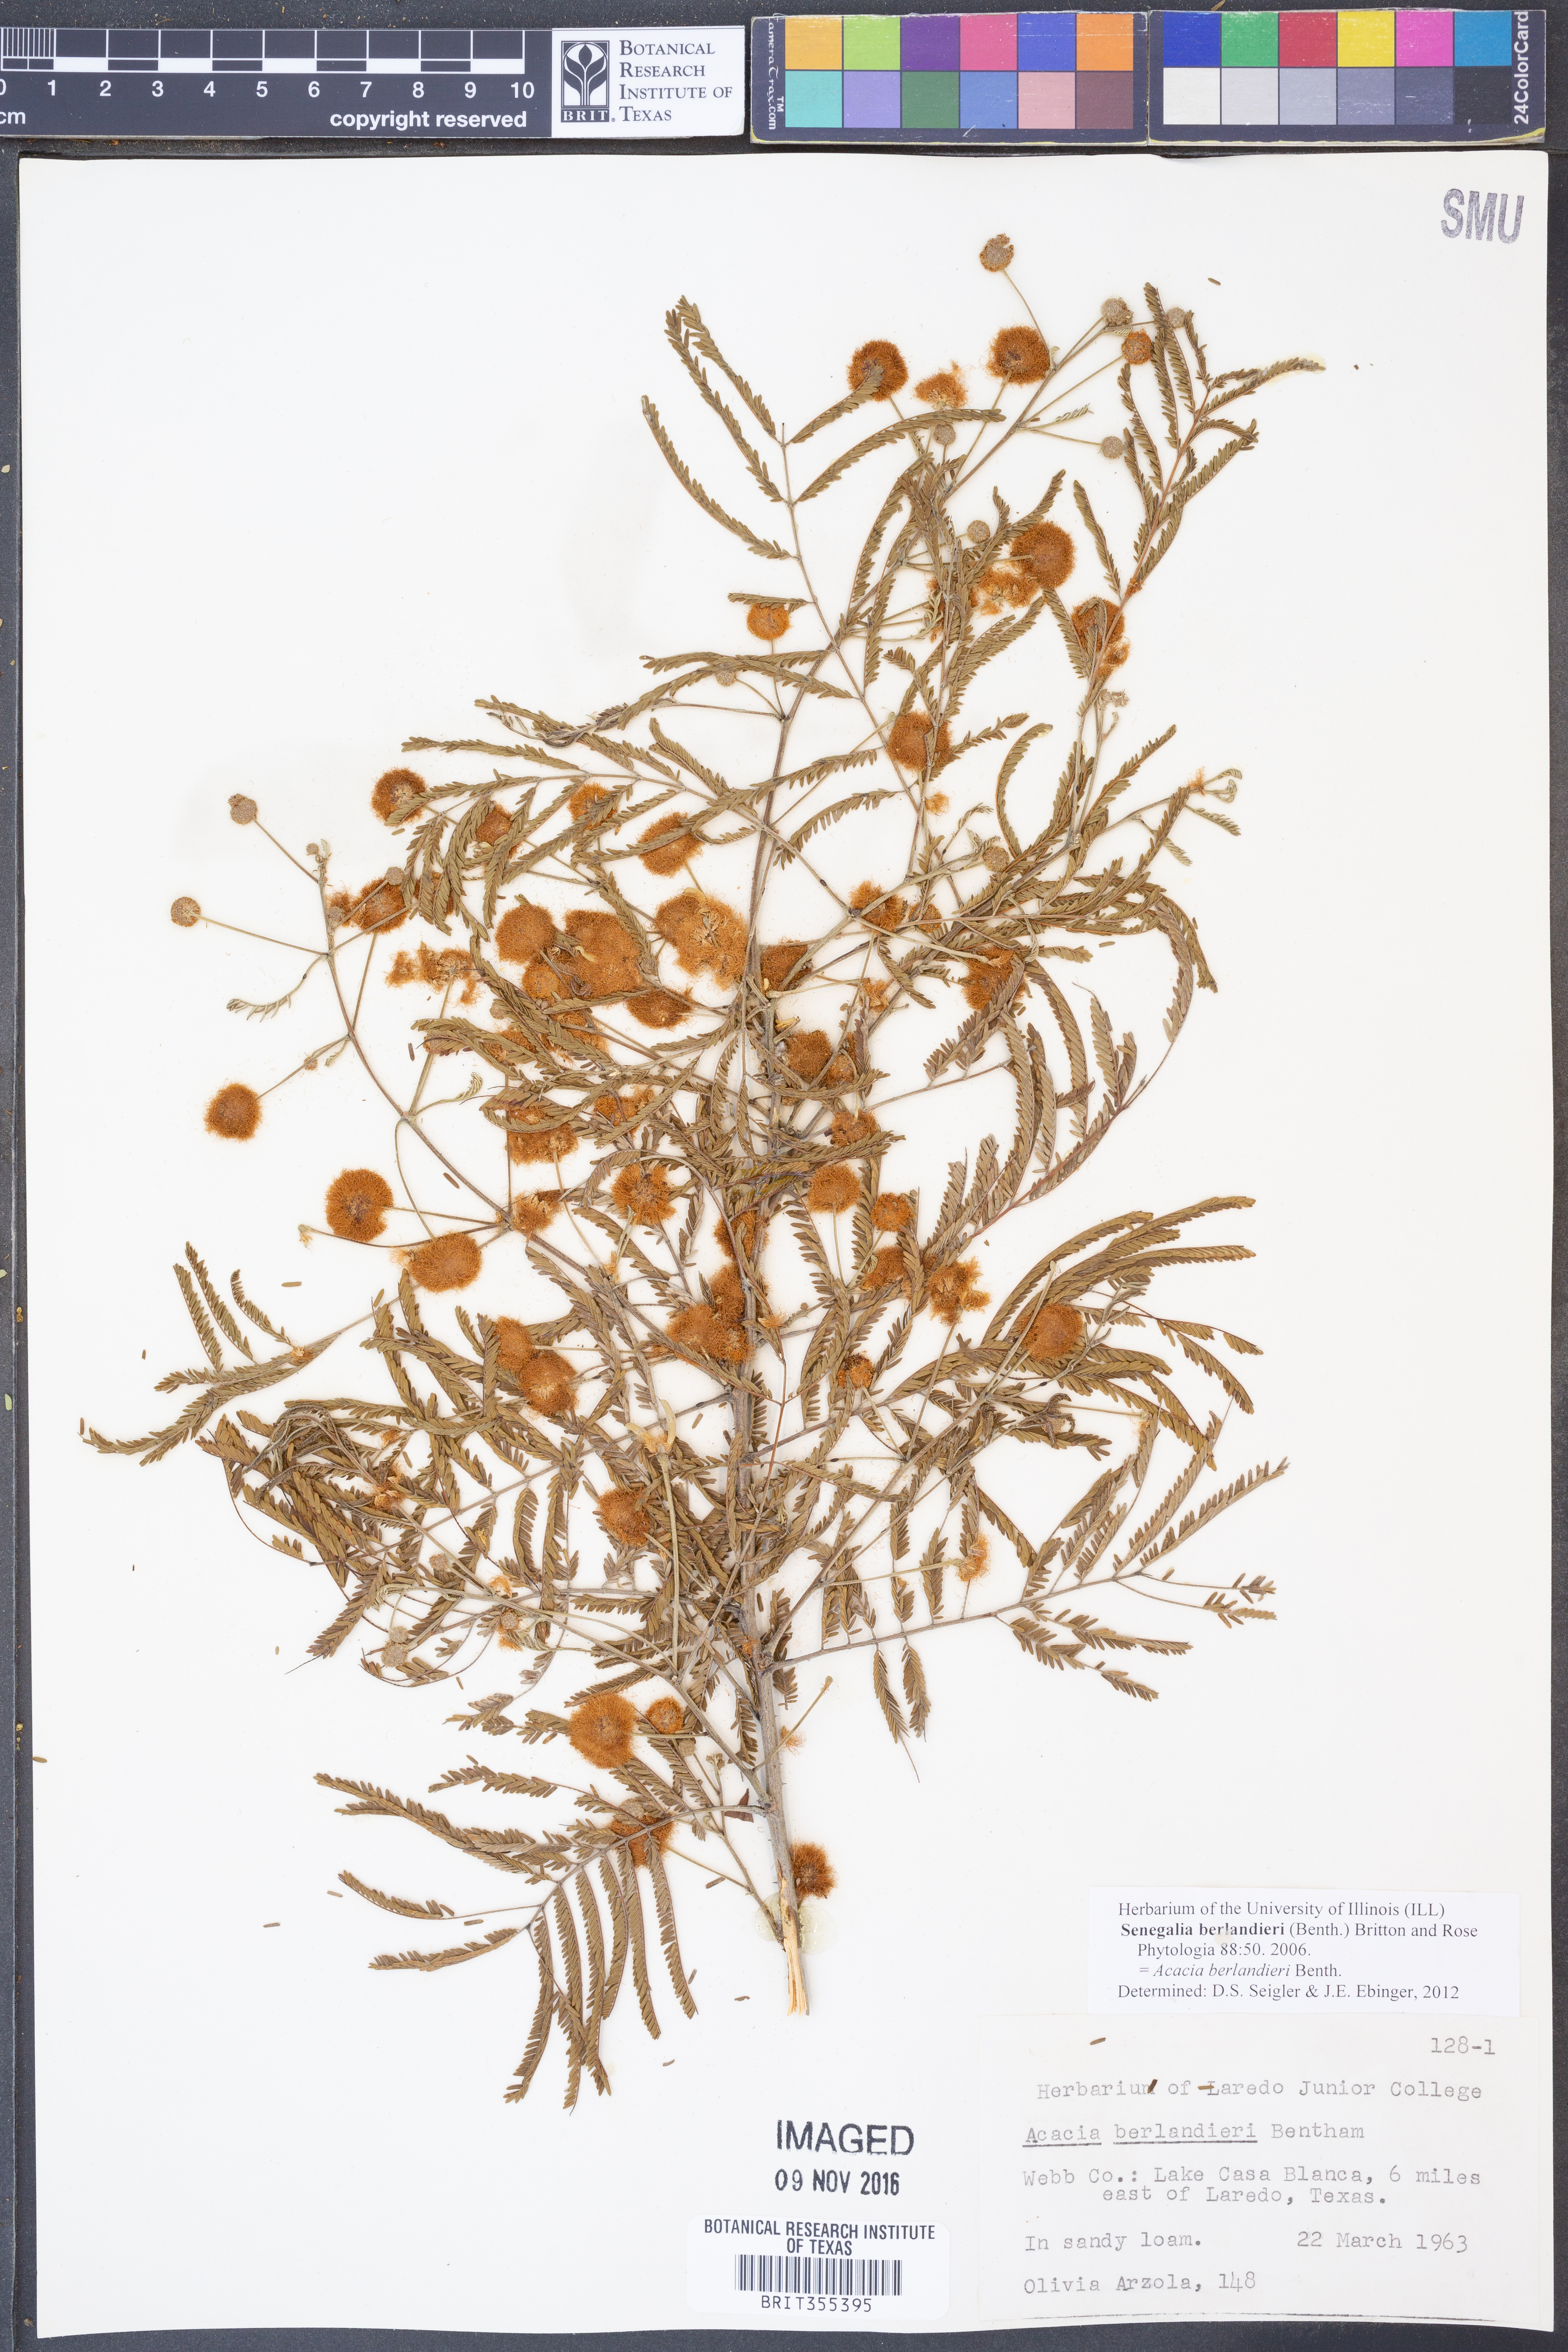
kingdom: Plantae
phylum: Tracheophyta
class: Magnoliopsida
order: Fabales
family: Fabaceae
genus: Senegalia
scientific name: Senegalia berlandieri
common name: Berlandier acacia
